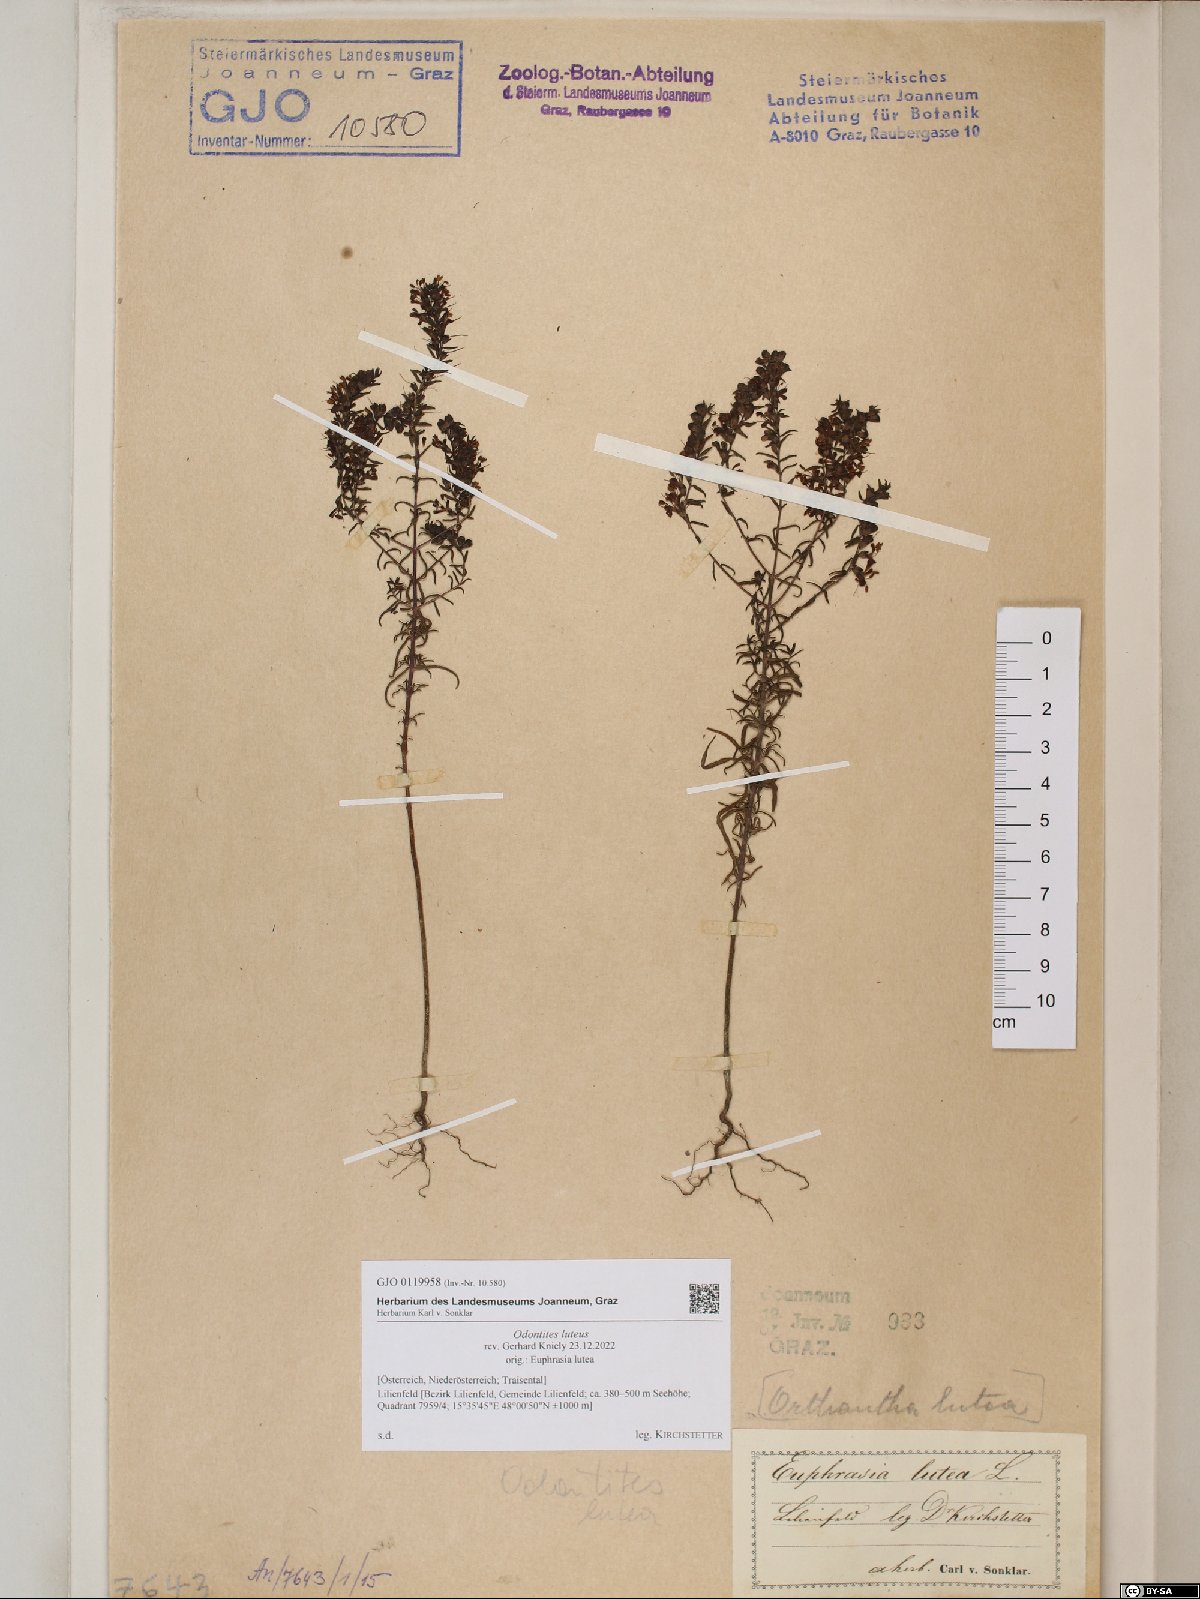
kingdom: Plantae
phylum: Tracheophyta
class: Magnoliopsida
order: Lamiales
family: Orobanchaceae
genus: Odontites
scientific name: Odontites luteus
